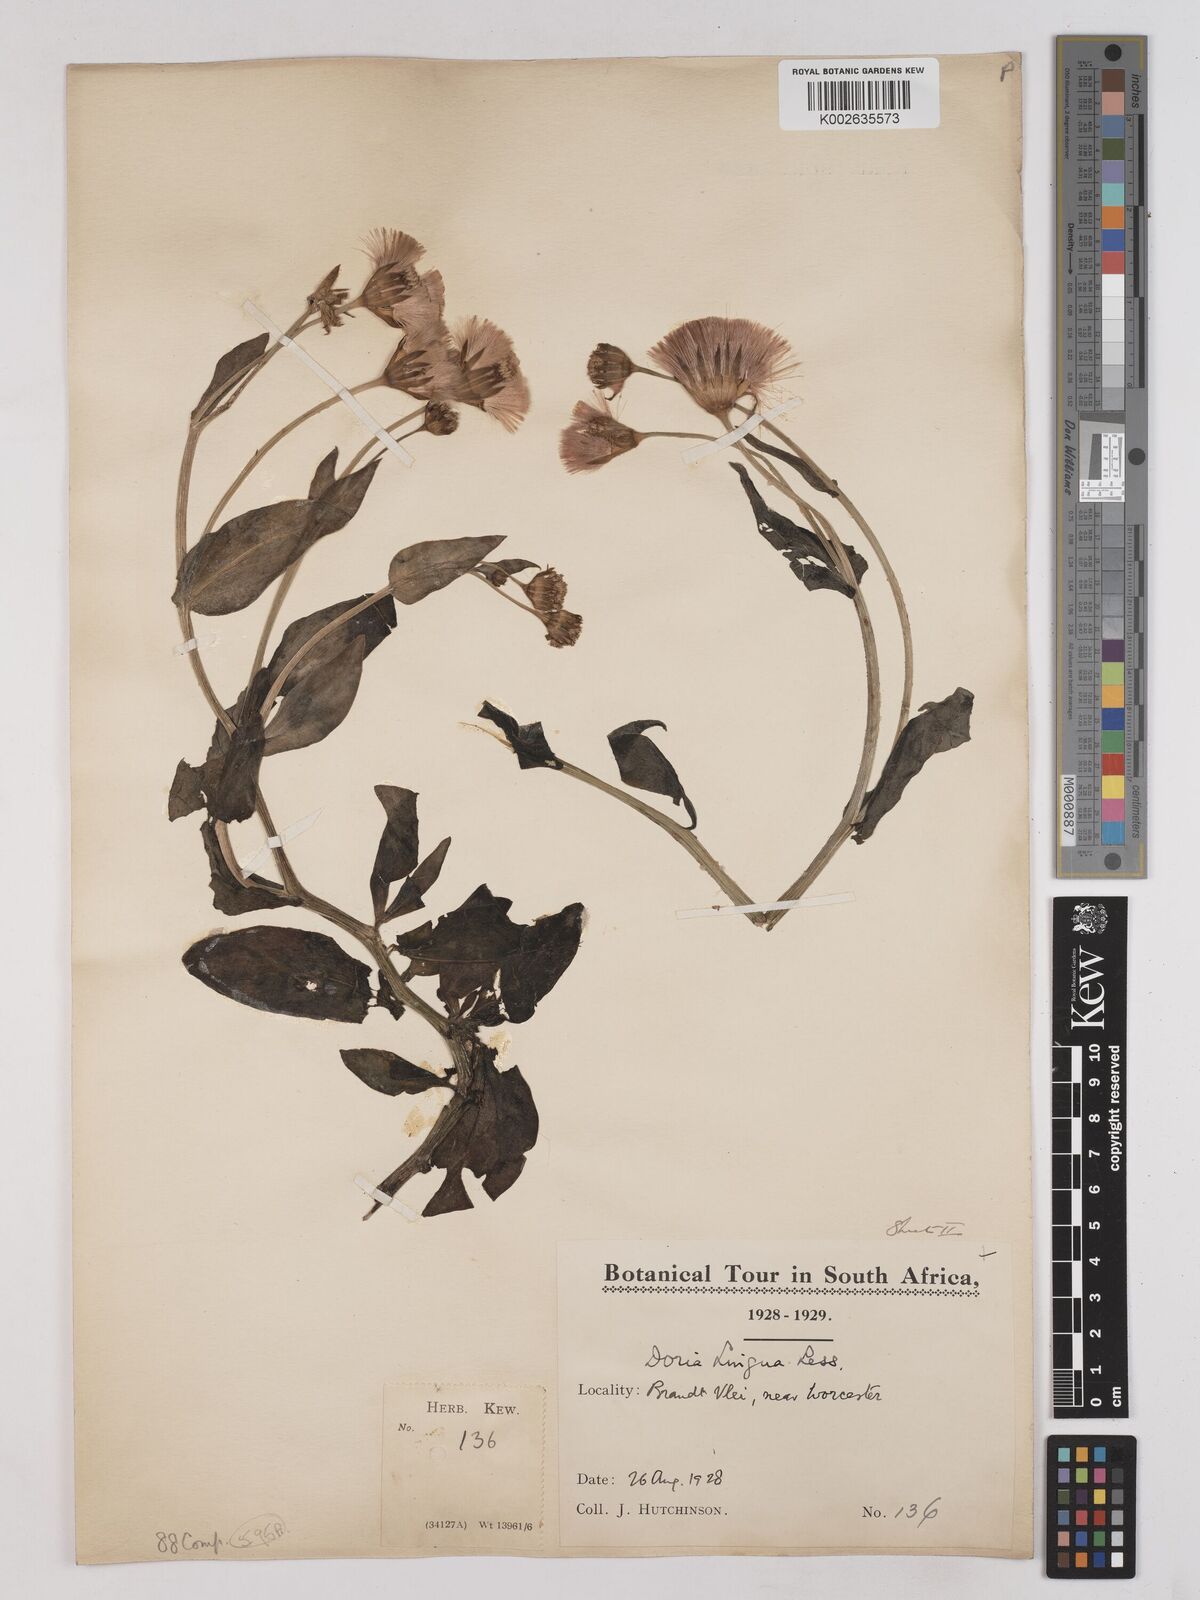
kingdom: Plantae
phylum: Tracheophyta
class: Magnoliopsida
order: Asterales
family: Asteraceae
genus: Othonna
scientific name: Othonna bulbosa
